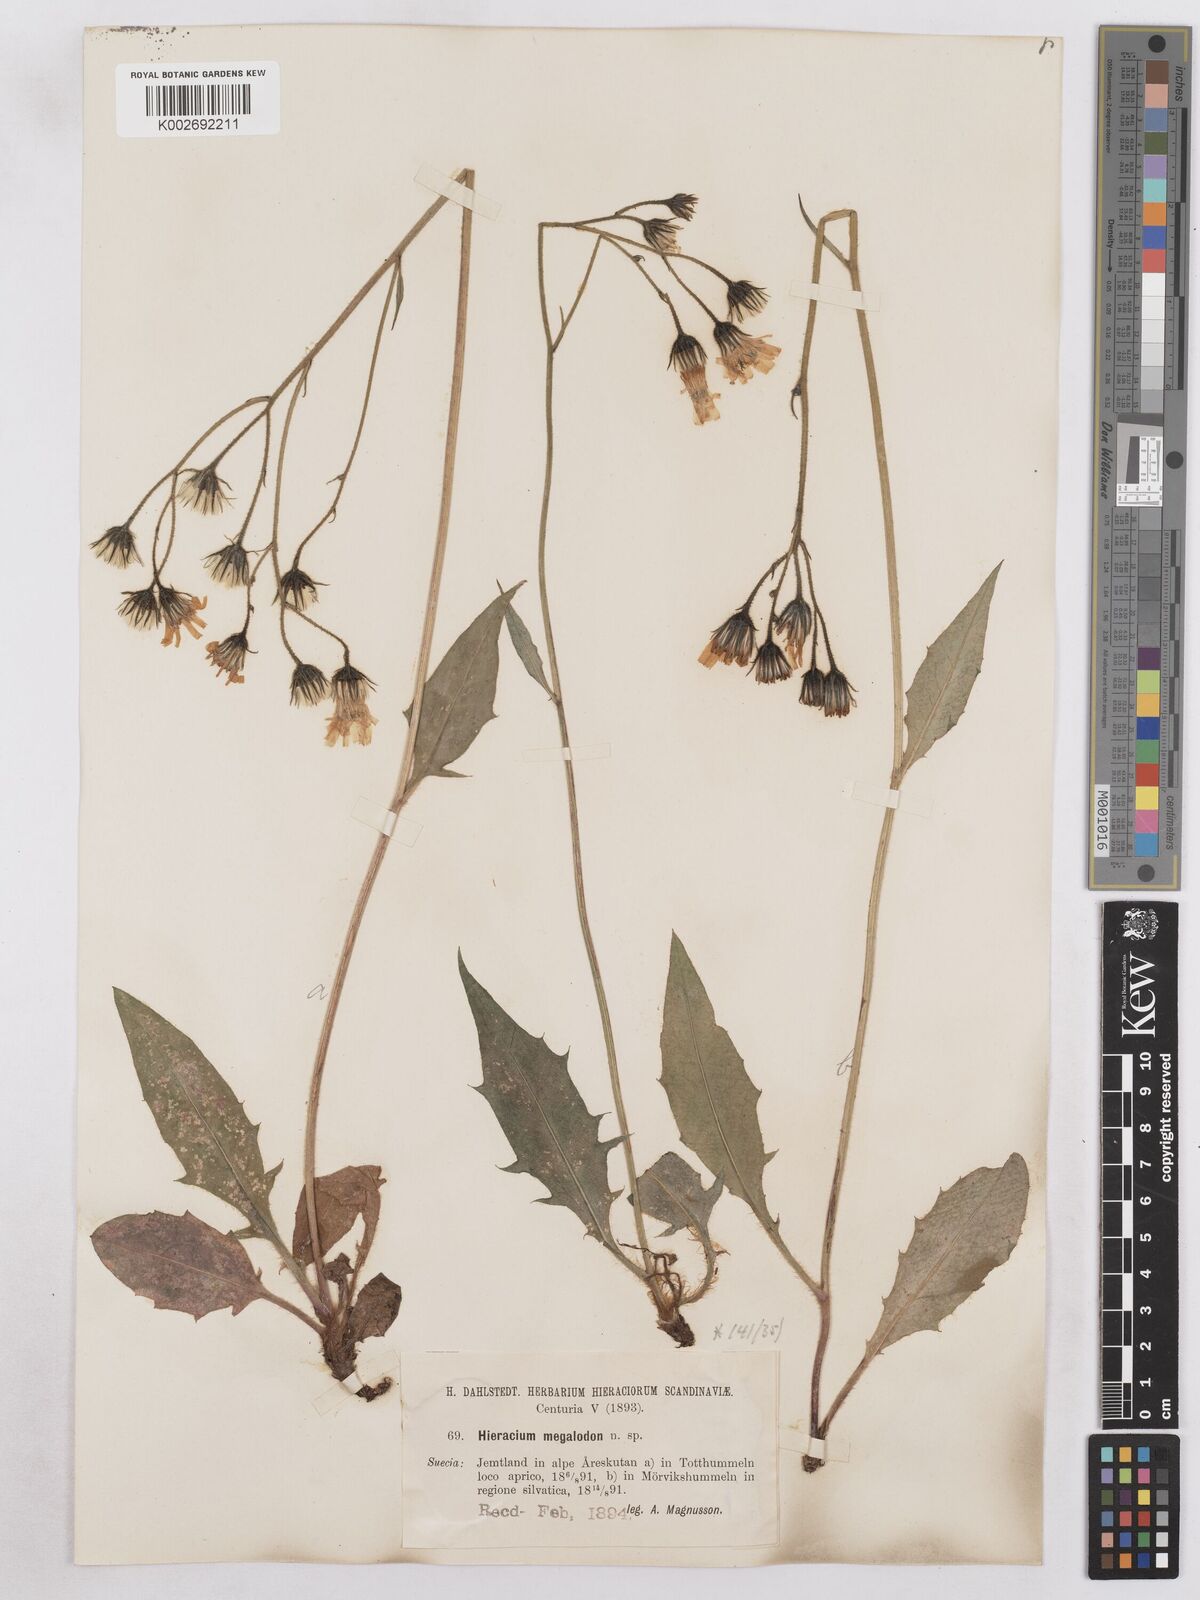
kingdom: Plantae
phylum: Tracheophyta
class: Magnoliopsida
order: Asterales
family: Asteraceae
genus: Hieracium
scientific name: Hieracium diaphanoides
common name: Fine-bracted hawkweed
